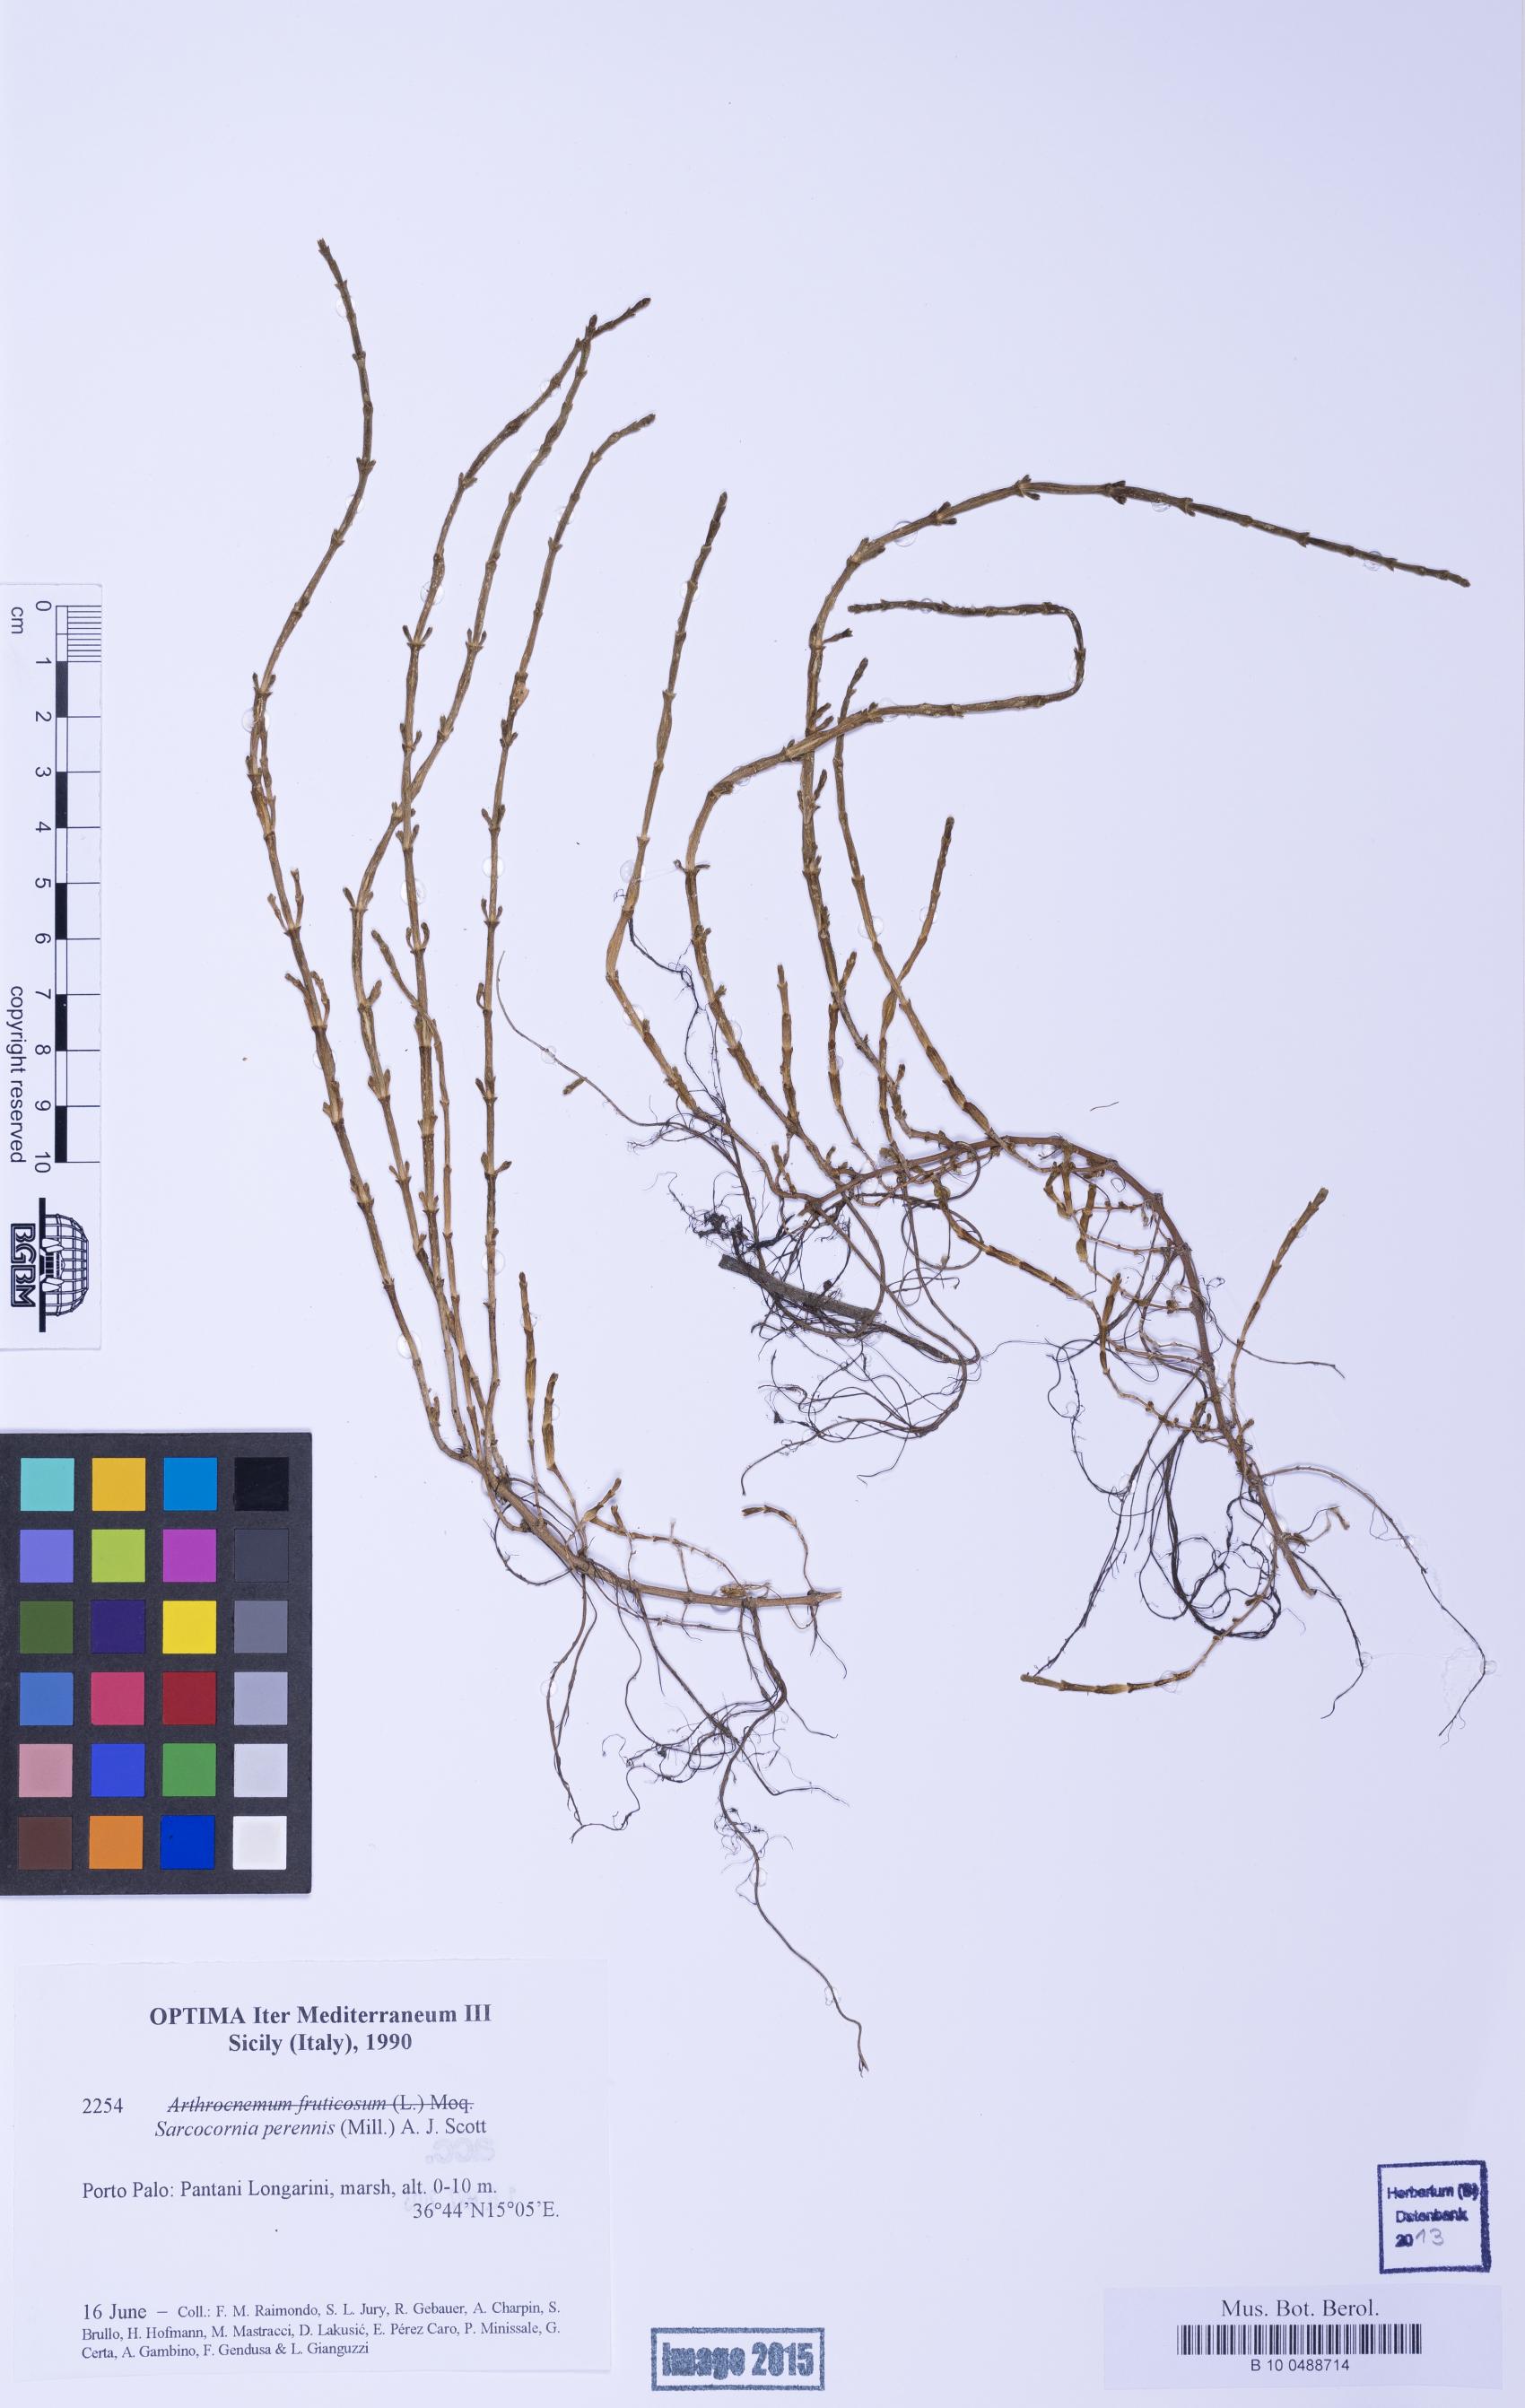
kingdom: Plantae
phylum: Tracheophyta
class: Magnoliopsida
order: Caryophyllales
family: Amaranthaceae
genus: Salicornia
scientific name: Salicornia perennis
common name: Chicken claws
